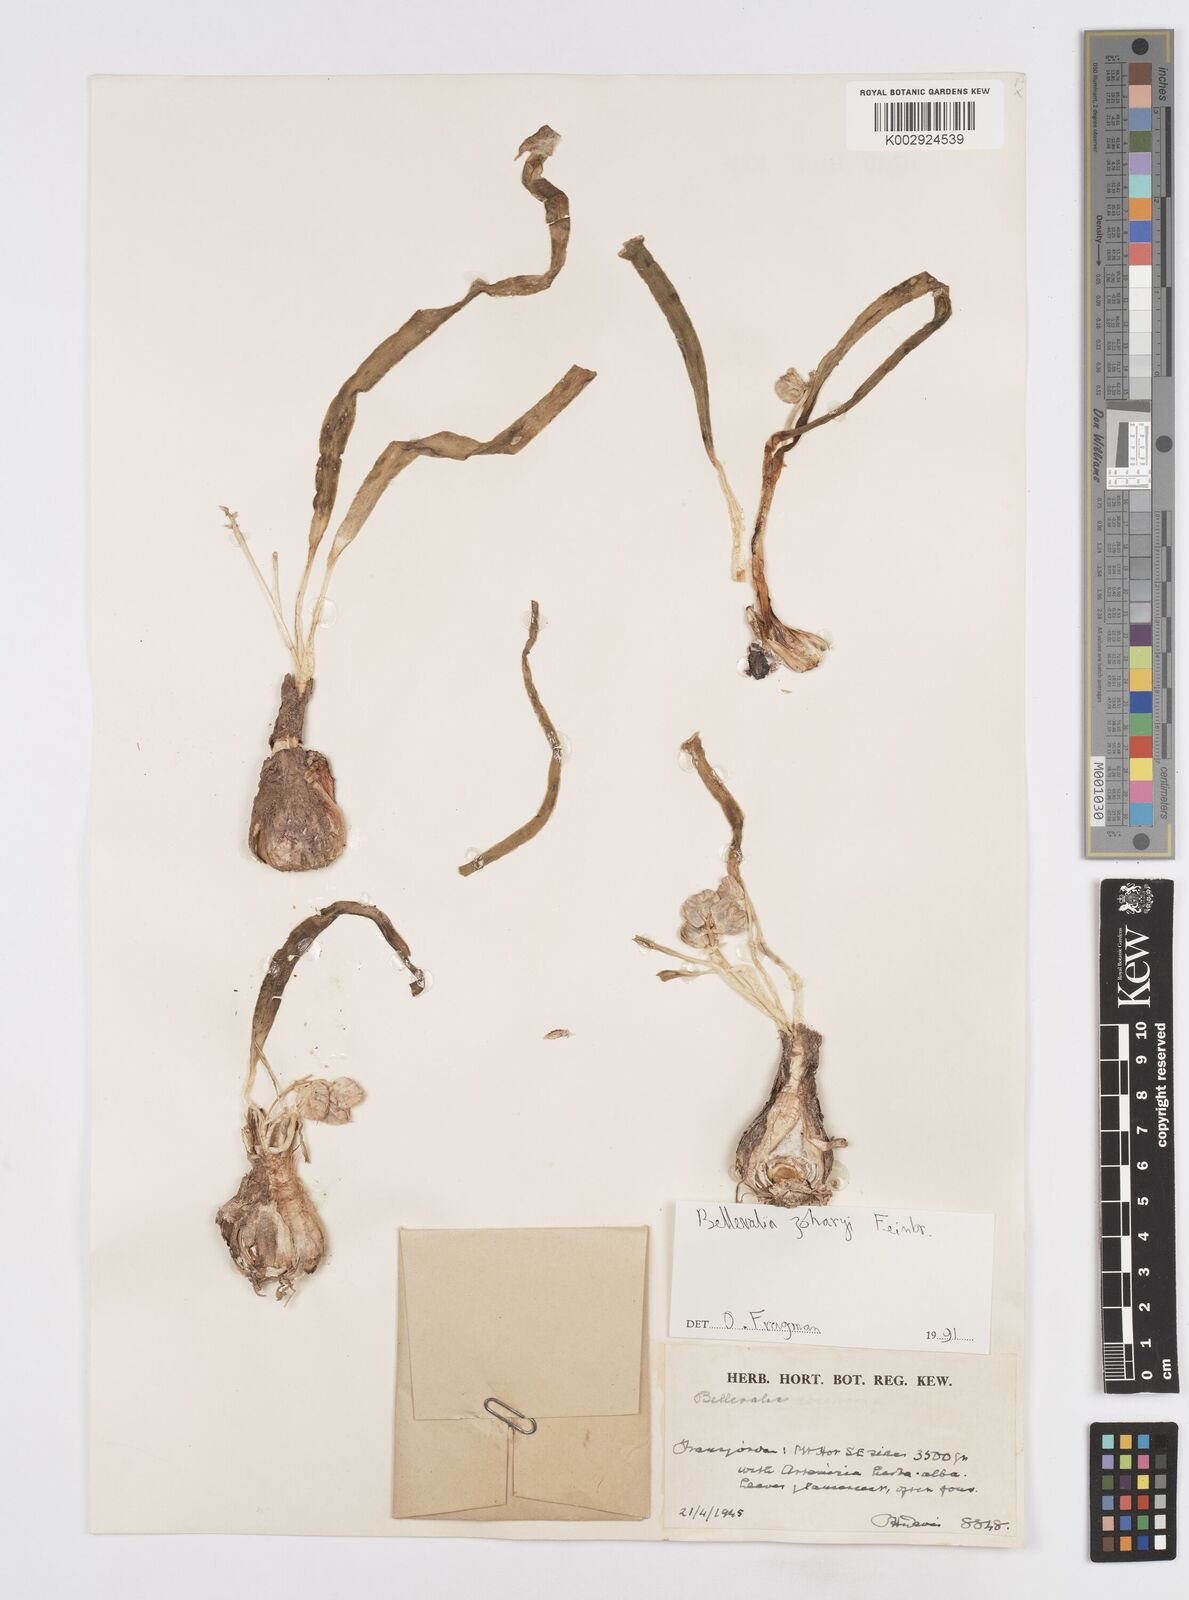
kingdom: Plantae
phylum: Tracheophyta
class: Liliopsida
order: Asparagales
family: Asparagaceae
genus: Bellevalia
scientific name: Bellevalia stepporum
